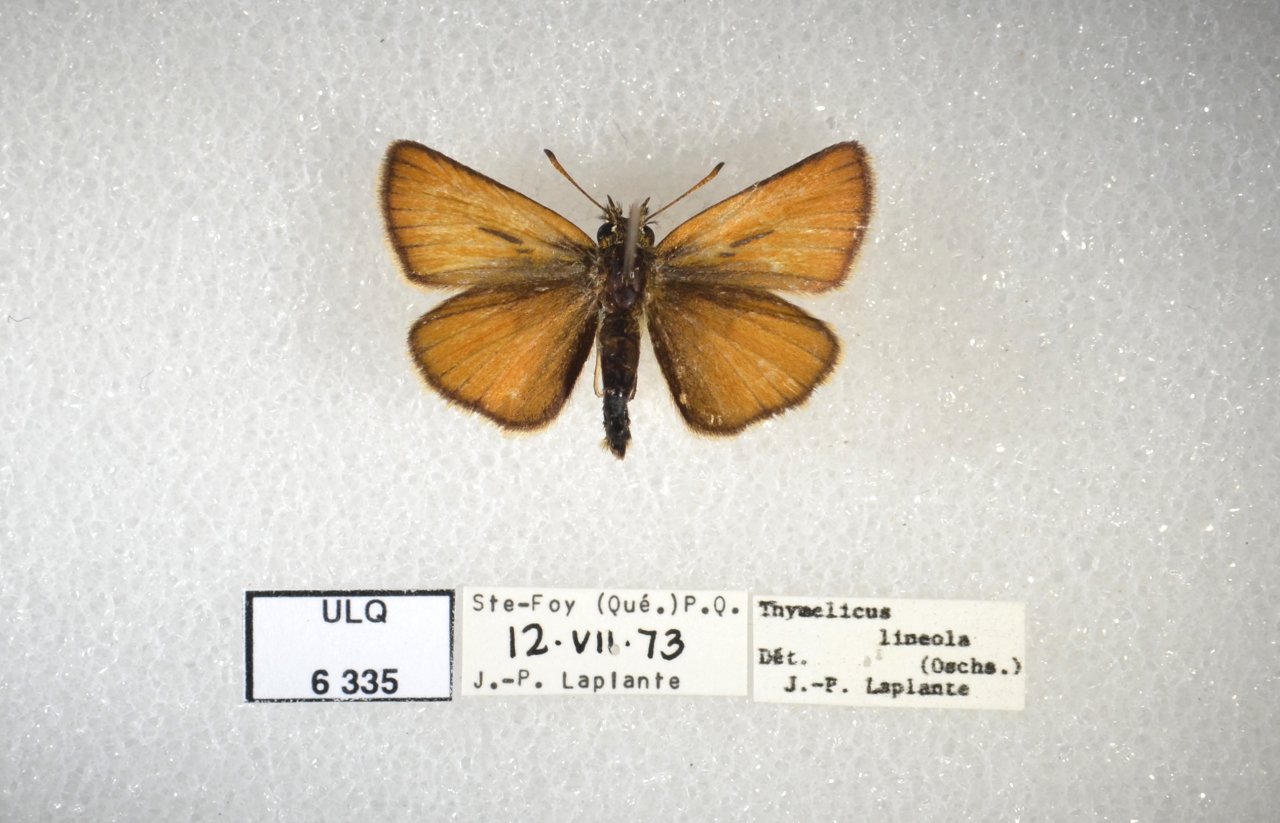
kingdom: Animalia
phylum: Arthropoda
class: Insecta
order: Lepidoptera
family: Hesperiidae
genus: Thymelicus
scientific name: Thymelicus lineola
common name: European Skipper
